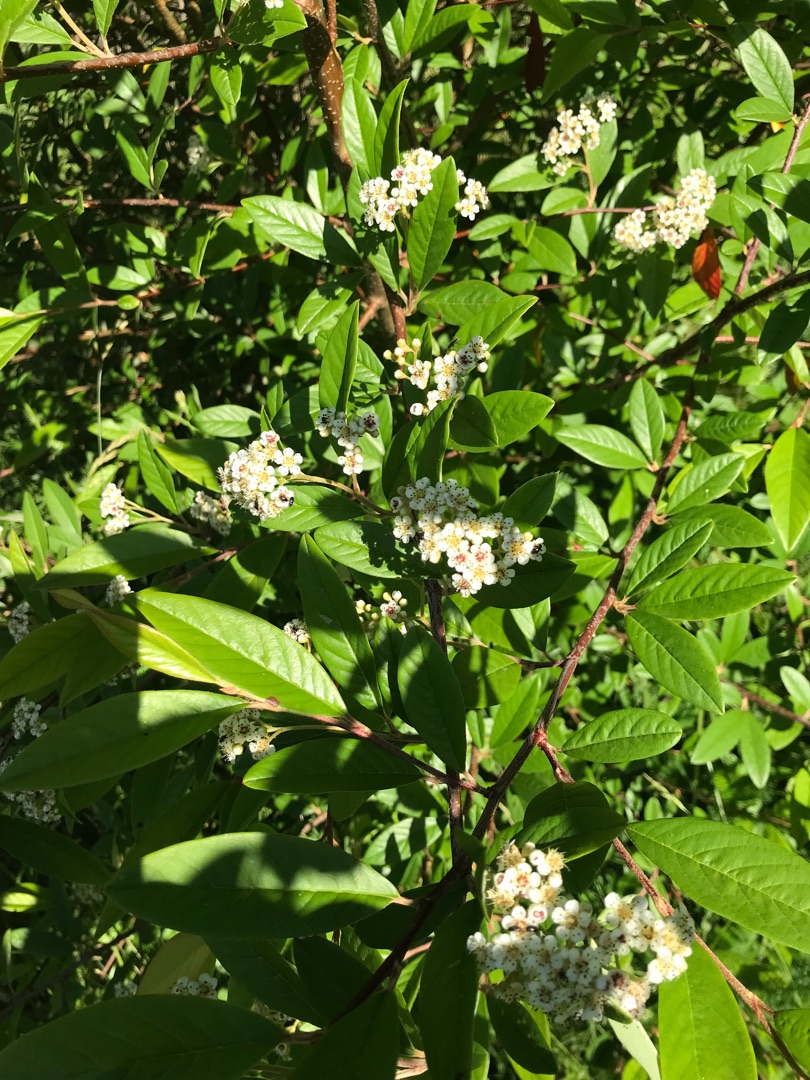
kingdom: Plantae
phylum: Tracheophyta
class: Magnoliopsida
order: Rosales
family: Rosaceae
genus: Cotoneaster
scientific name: Cotoneaster salicifolius
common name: Pilebladet dværgmispel
